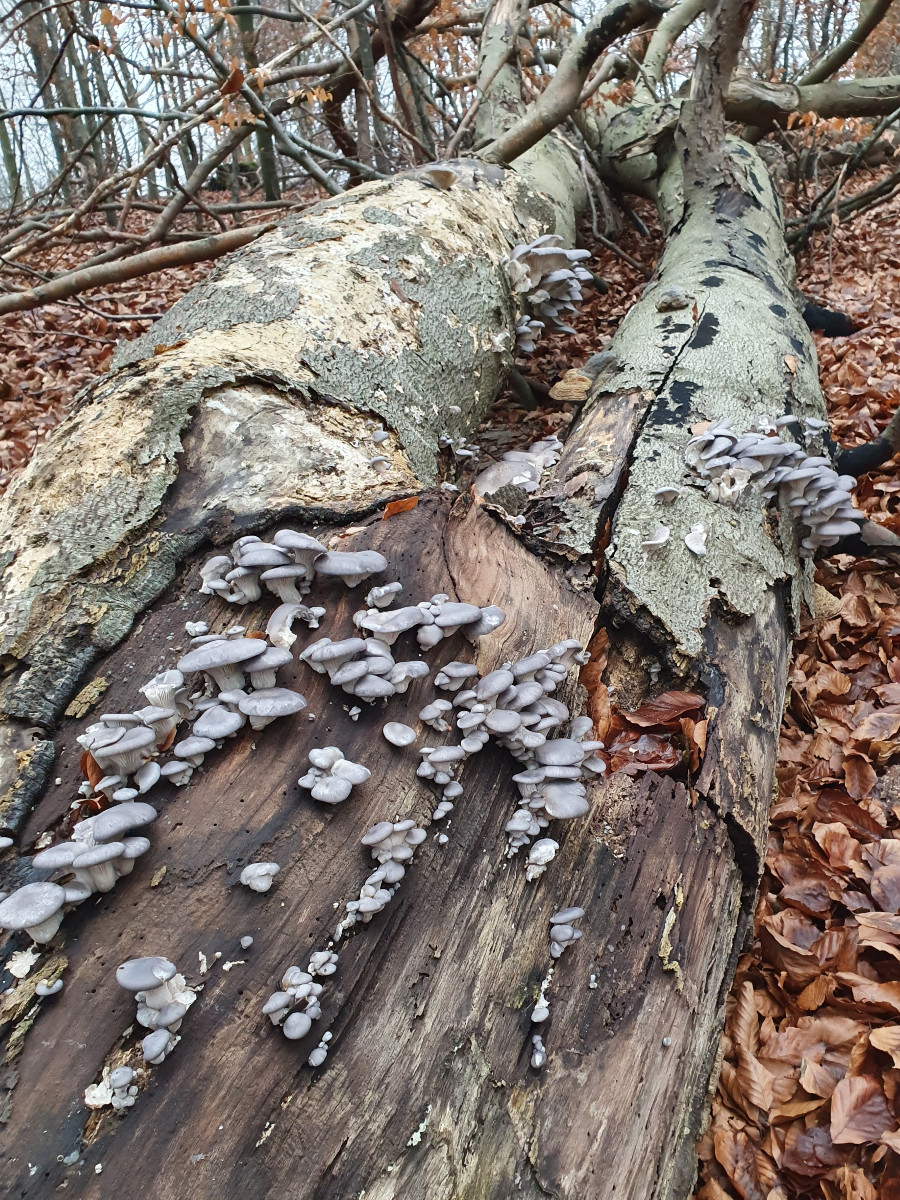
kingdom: Fungi
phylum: Basidiomycota
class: Agaricomycetes
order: Agaricales
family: Pleurotaceae
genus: Pleurotus
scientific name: Pleurotus ostreatus
